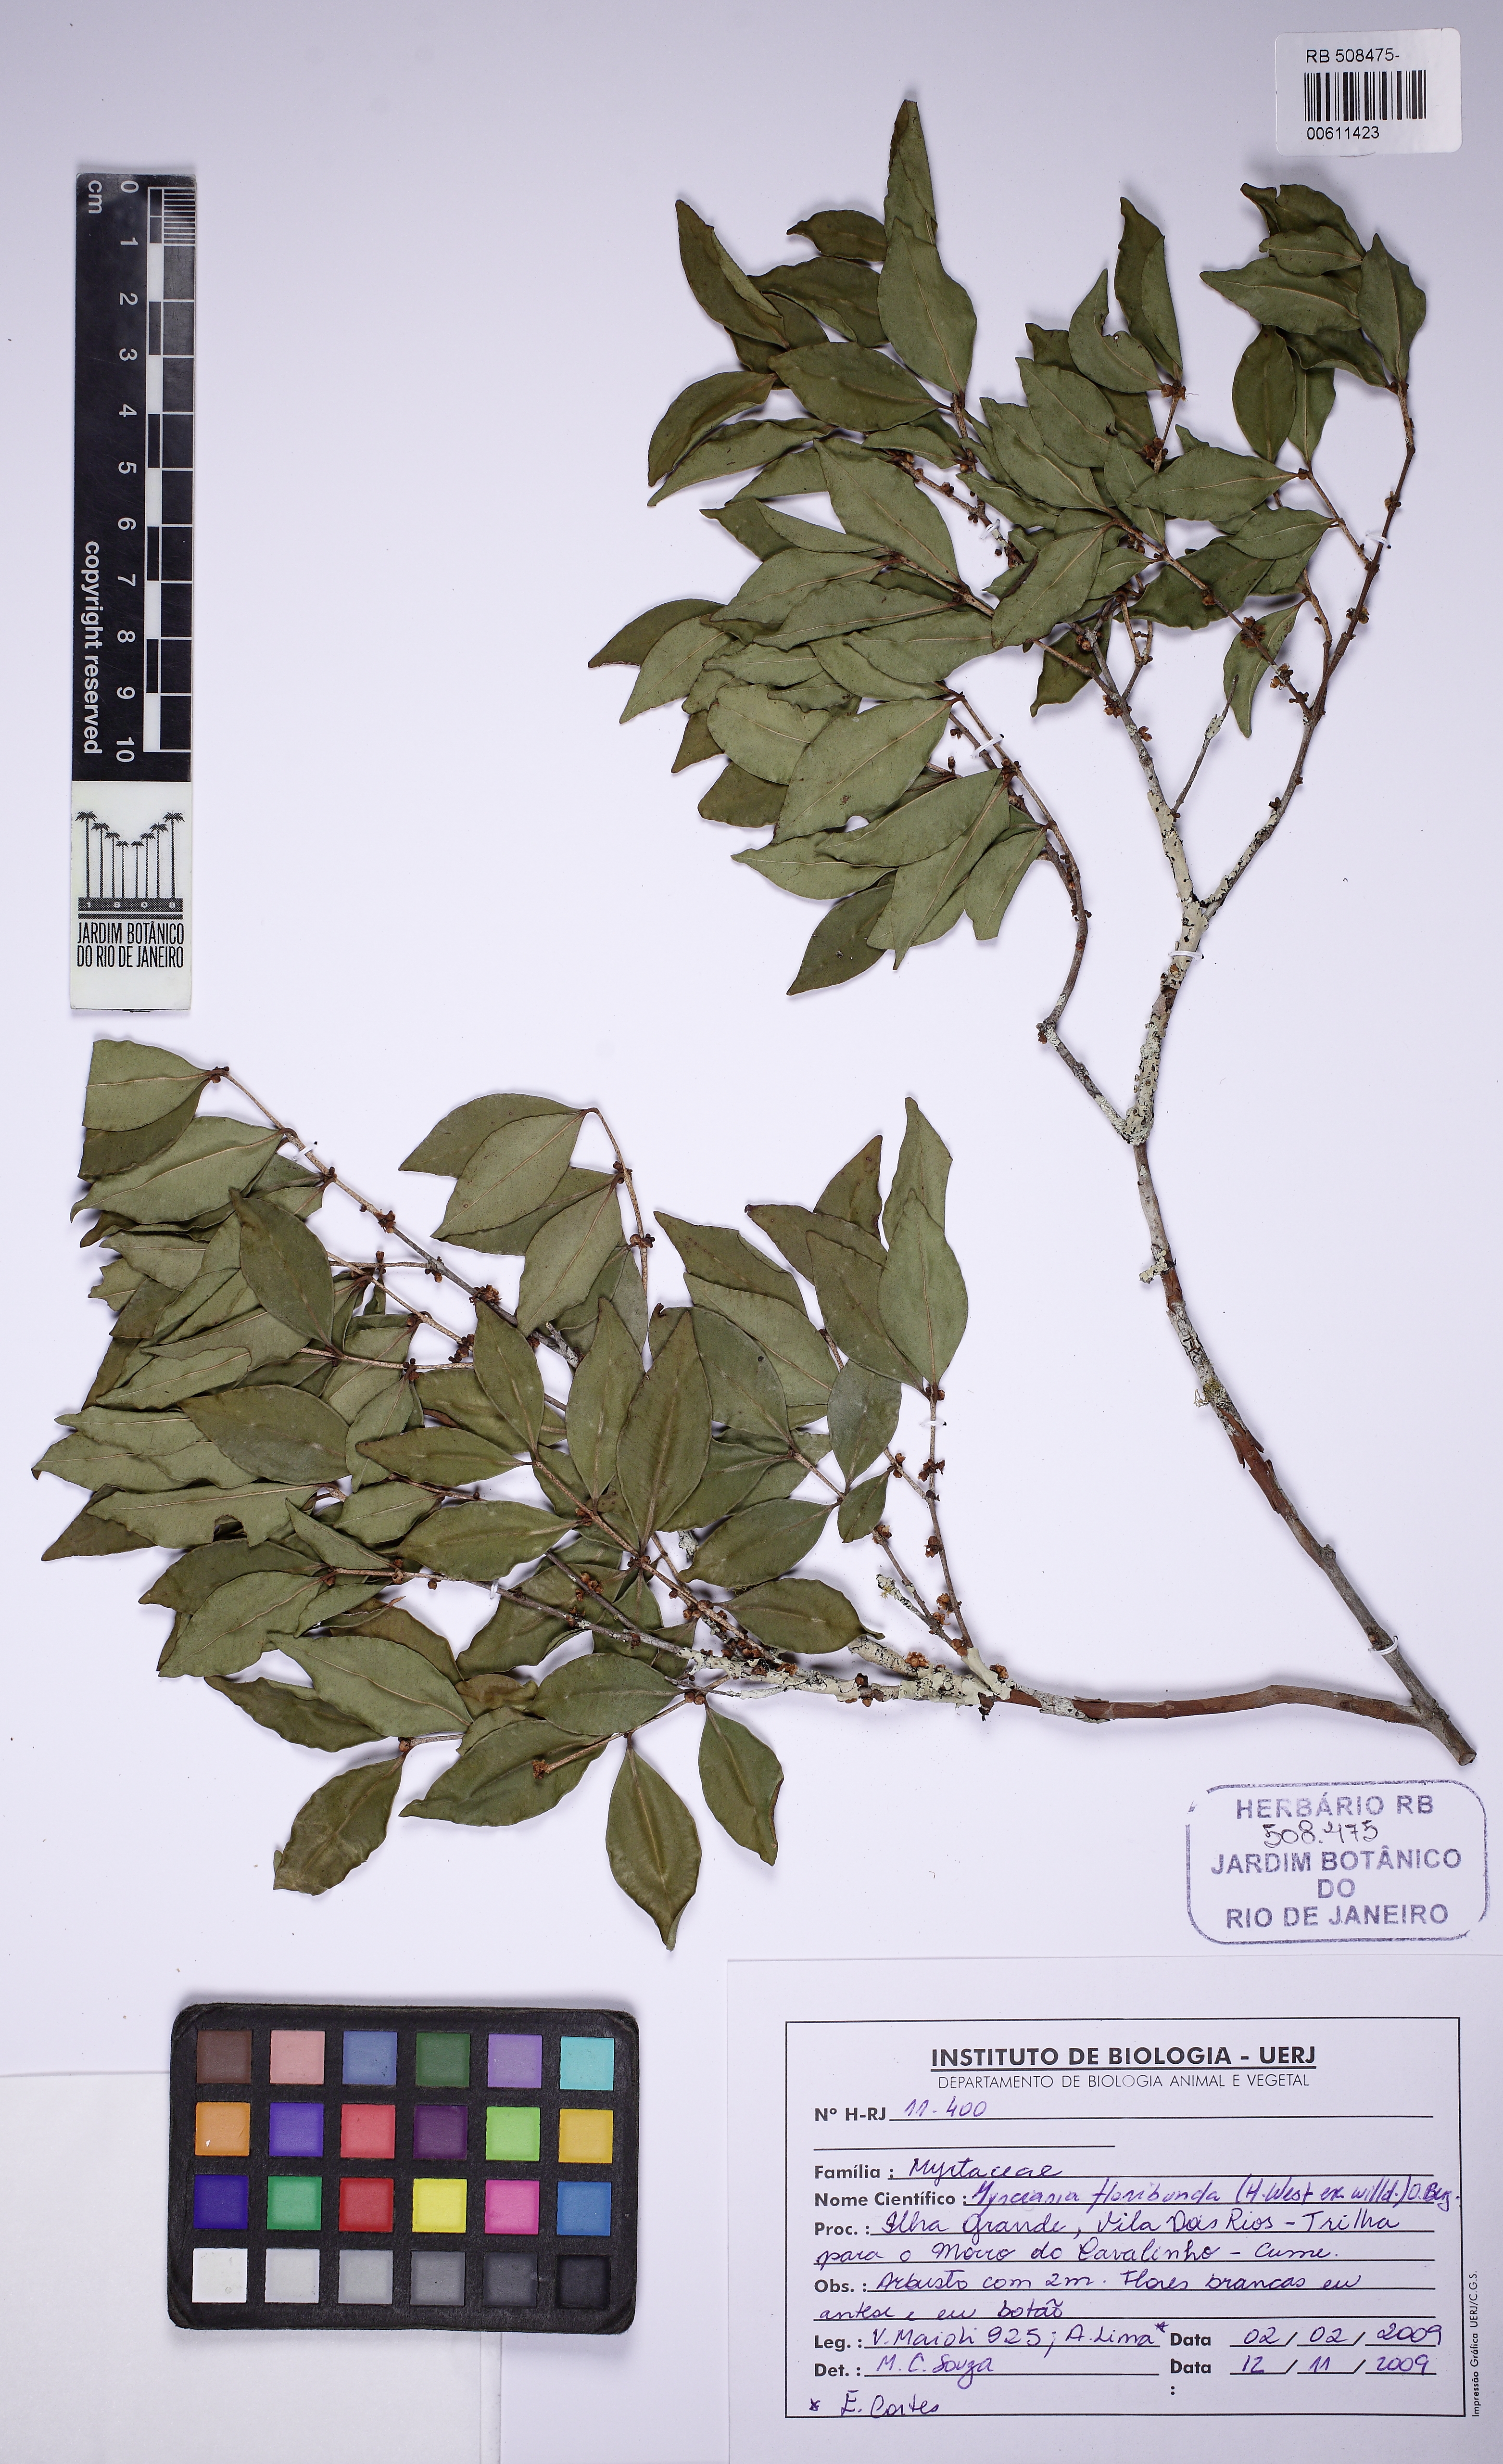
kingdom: Plantae
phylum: Tracheophyta
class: Magnoliopsida
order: Myrtales
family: Myrtaceae
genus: Myrciaria
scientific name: Myrciaria floribunda
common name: Guavaberry
